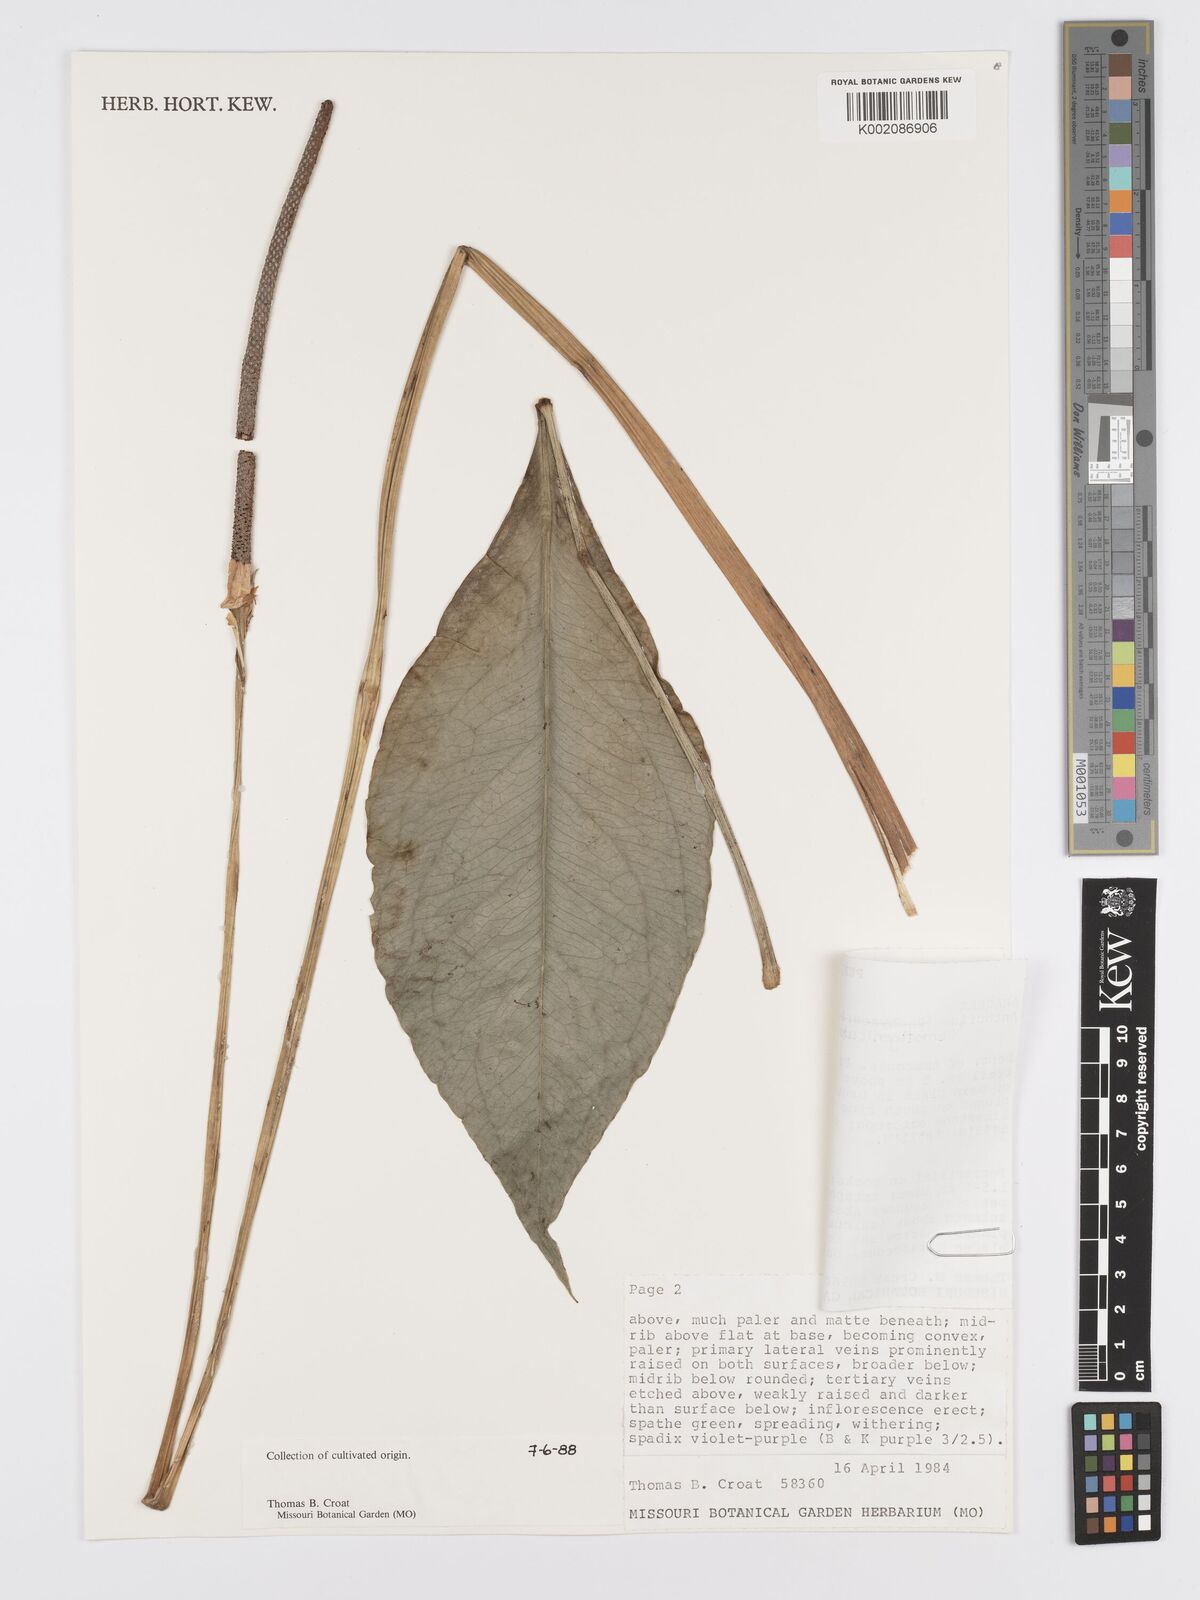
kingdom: Plantae
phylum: Tracheophyta
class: Liliopsida
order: Alismatales
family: Araceae
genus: Anthurium
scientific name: Anthurium remotigeniculatum
